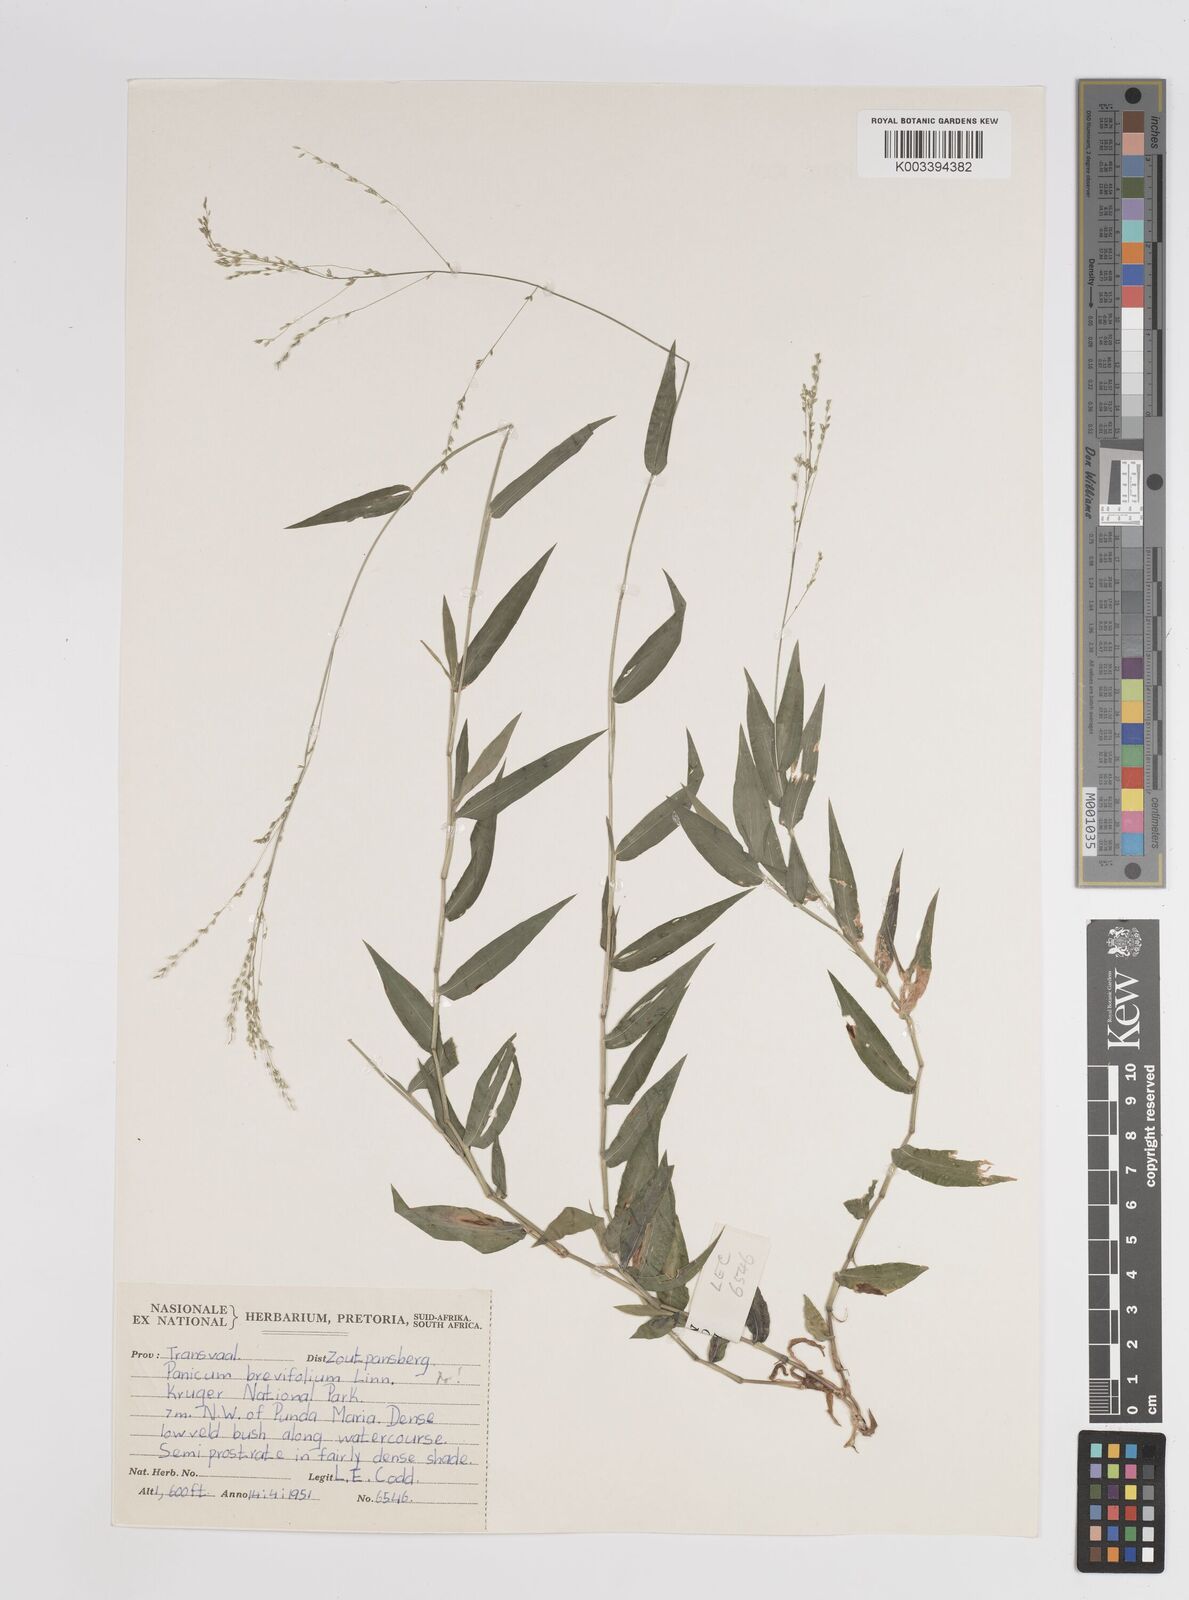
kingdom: Plantae
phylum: Tracheophyta
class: Liliopsida
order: Poales
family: Poaceae
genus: Panicum
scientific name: Panicum laticomum
